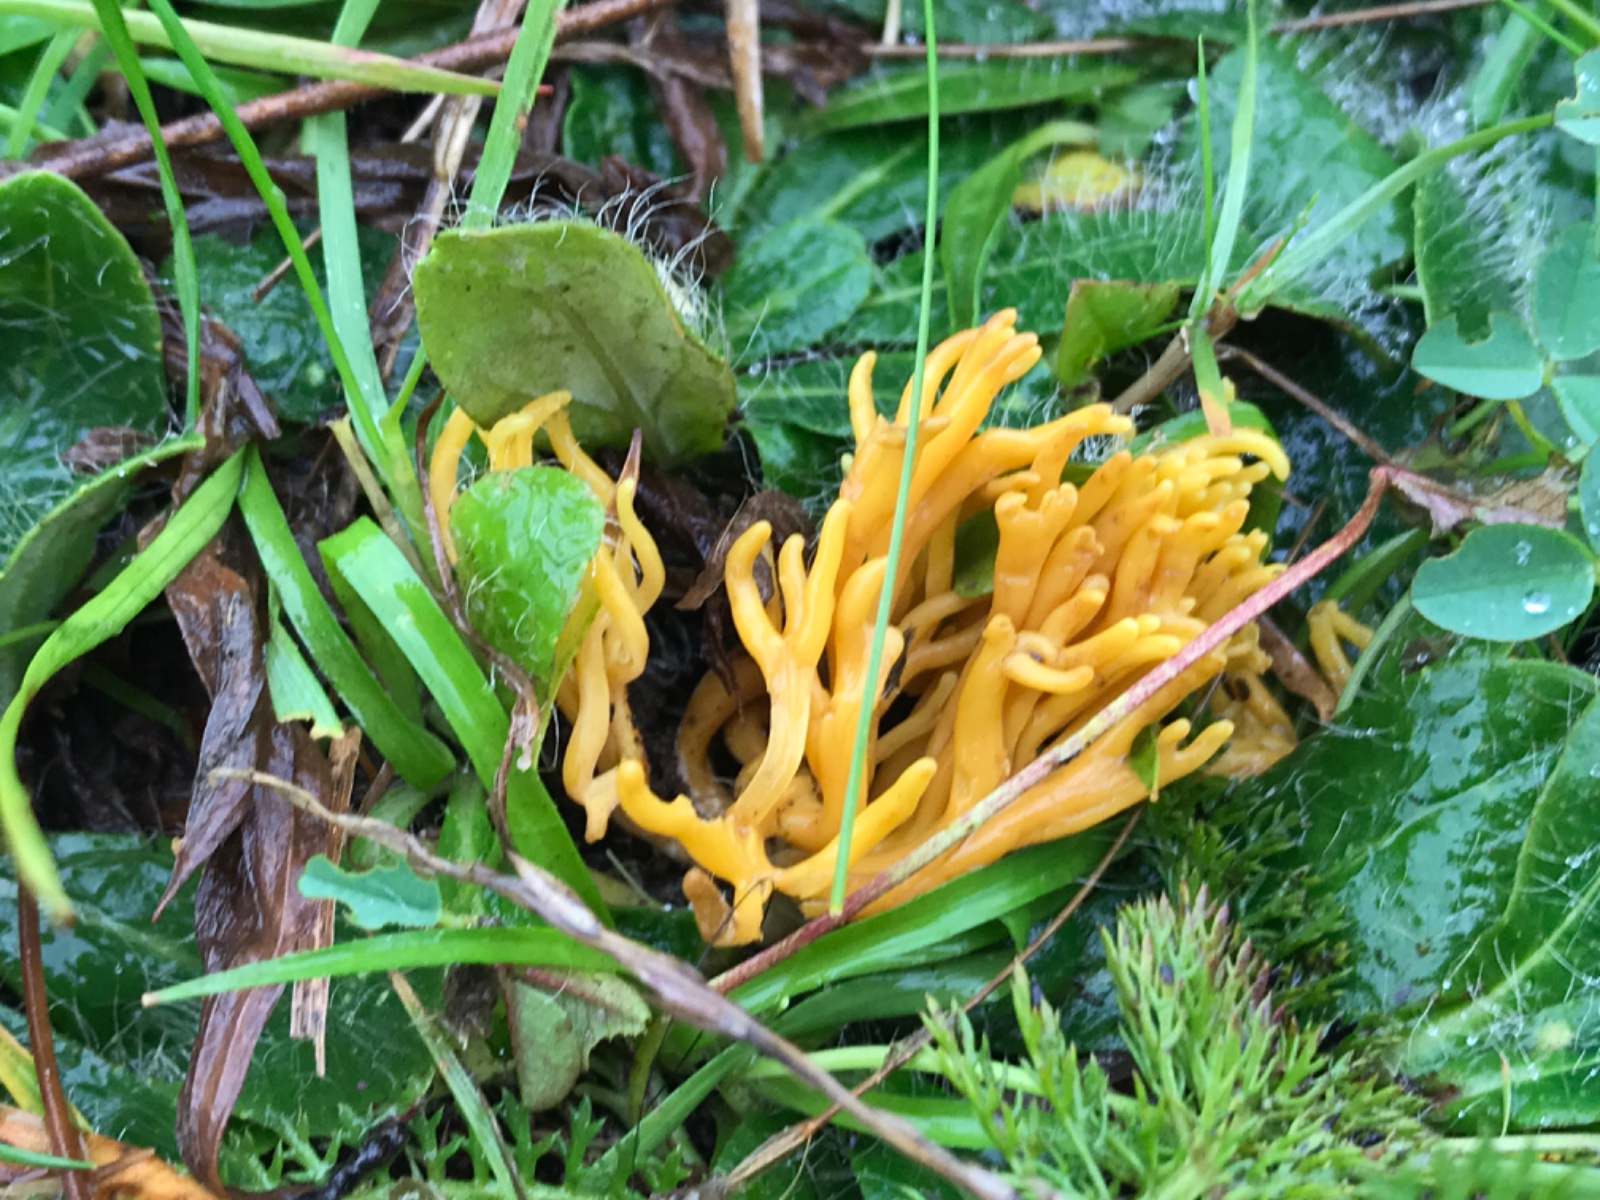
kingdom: Fungi
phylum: Basidiomycota
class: Agaricomycetes
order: Agaricales
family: Clavariaceae
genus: Clavulinopsis
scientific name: Clavulinopsis corniculata
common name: eng-køllesvamp
